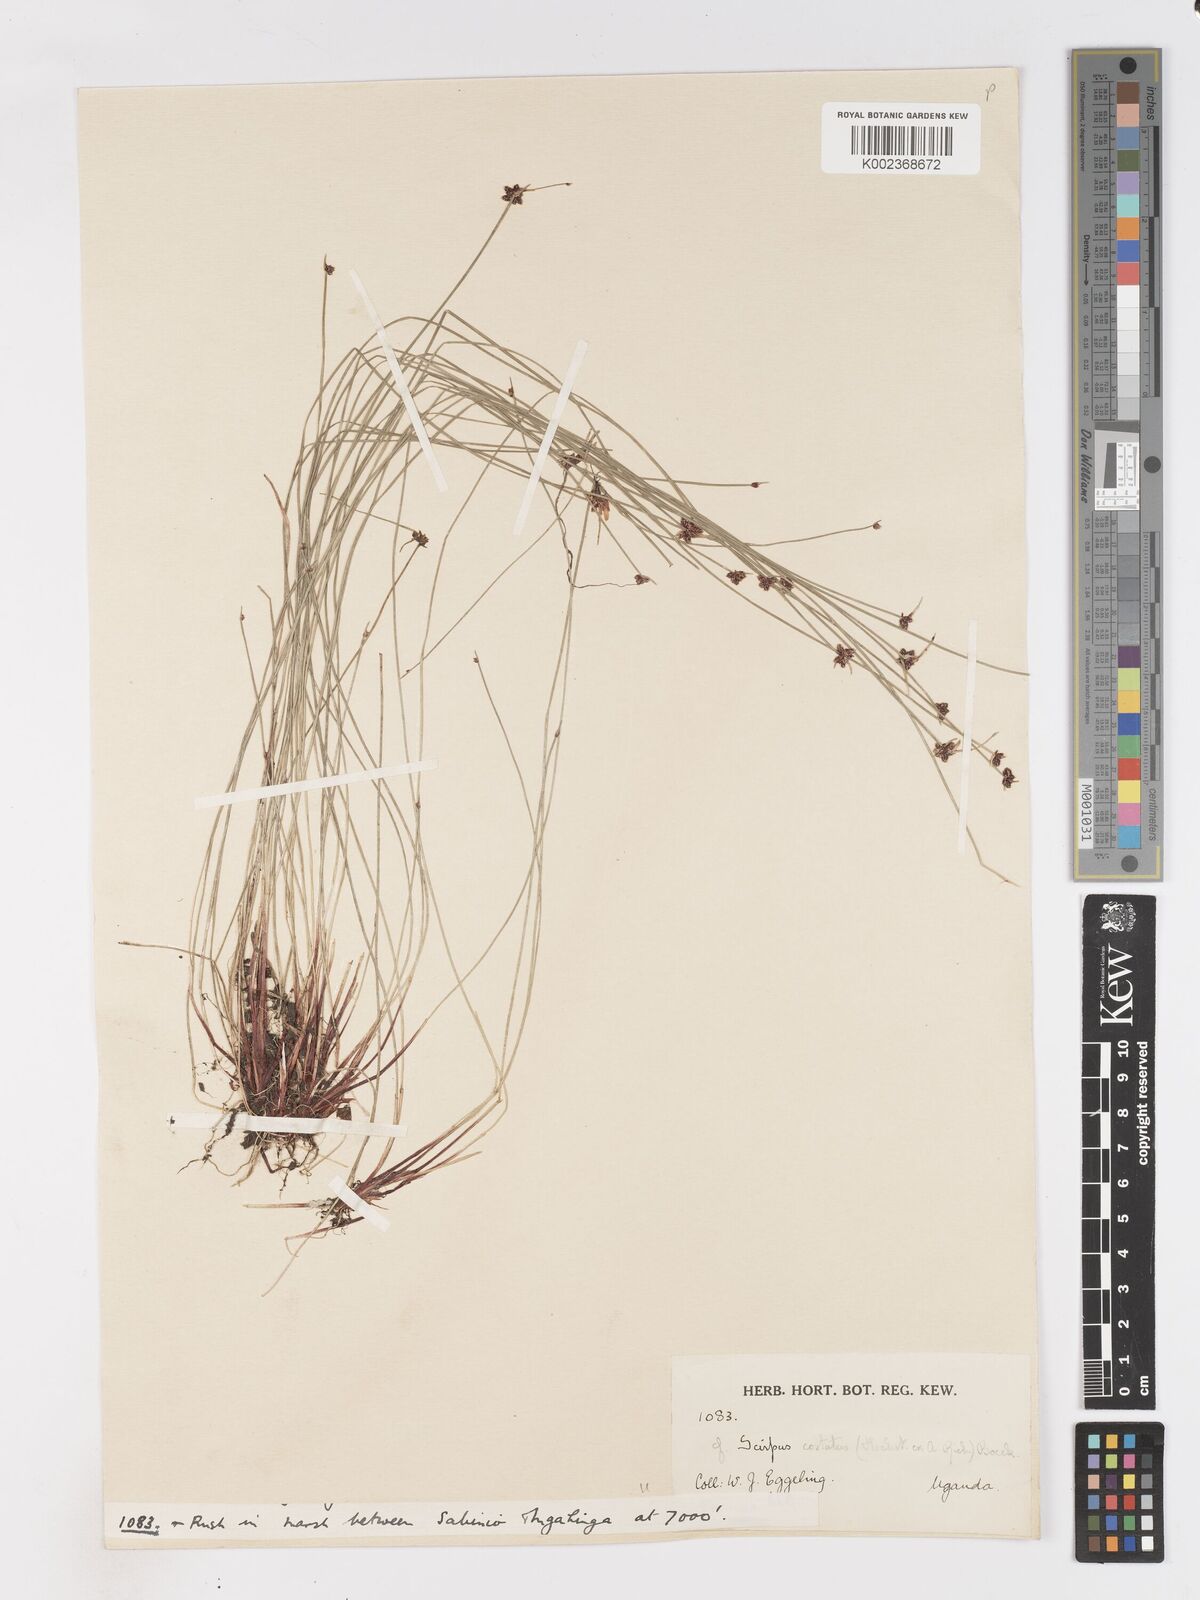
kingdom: Plantae
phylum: Tracheophyta
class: Liliopsida
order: Poales
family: Cyperaceae
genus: Isolepis
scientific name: Isolepis costata
